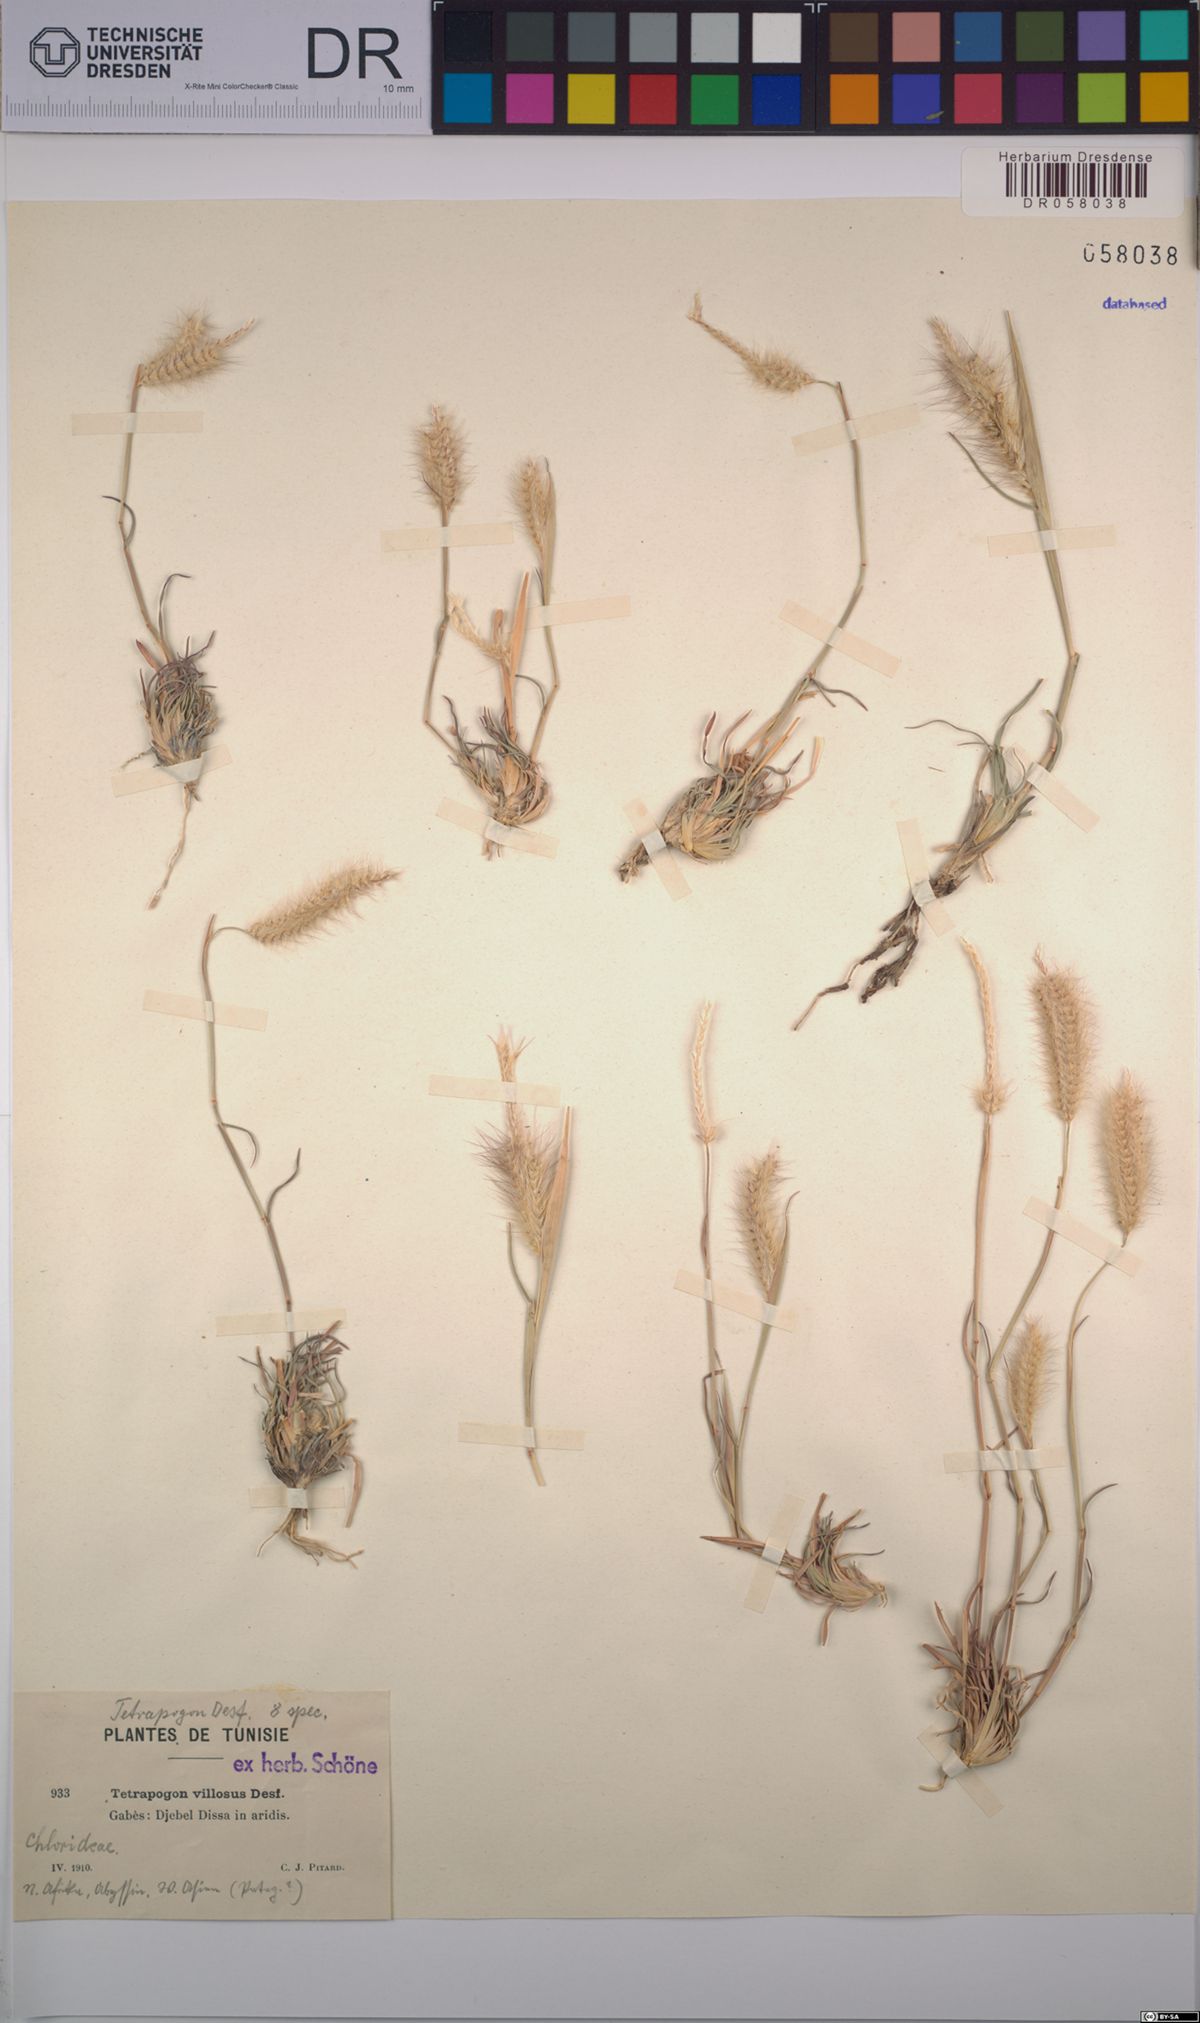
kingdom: Plantae
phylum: Tracheophyta
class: Liliopsida
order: Poales
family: Poaceae
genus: Tetrapogon
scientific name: Tetrapogon villosus
